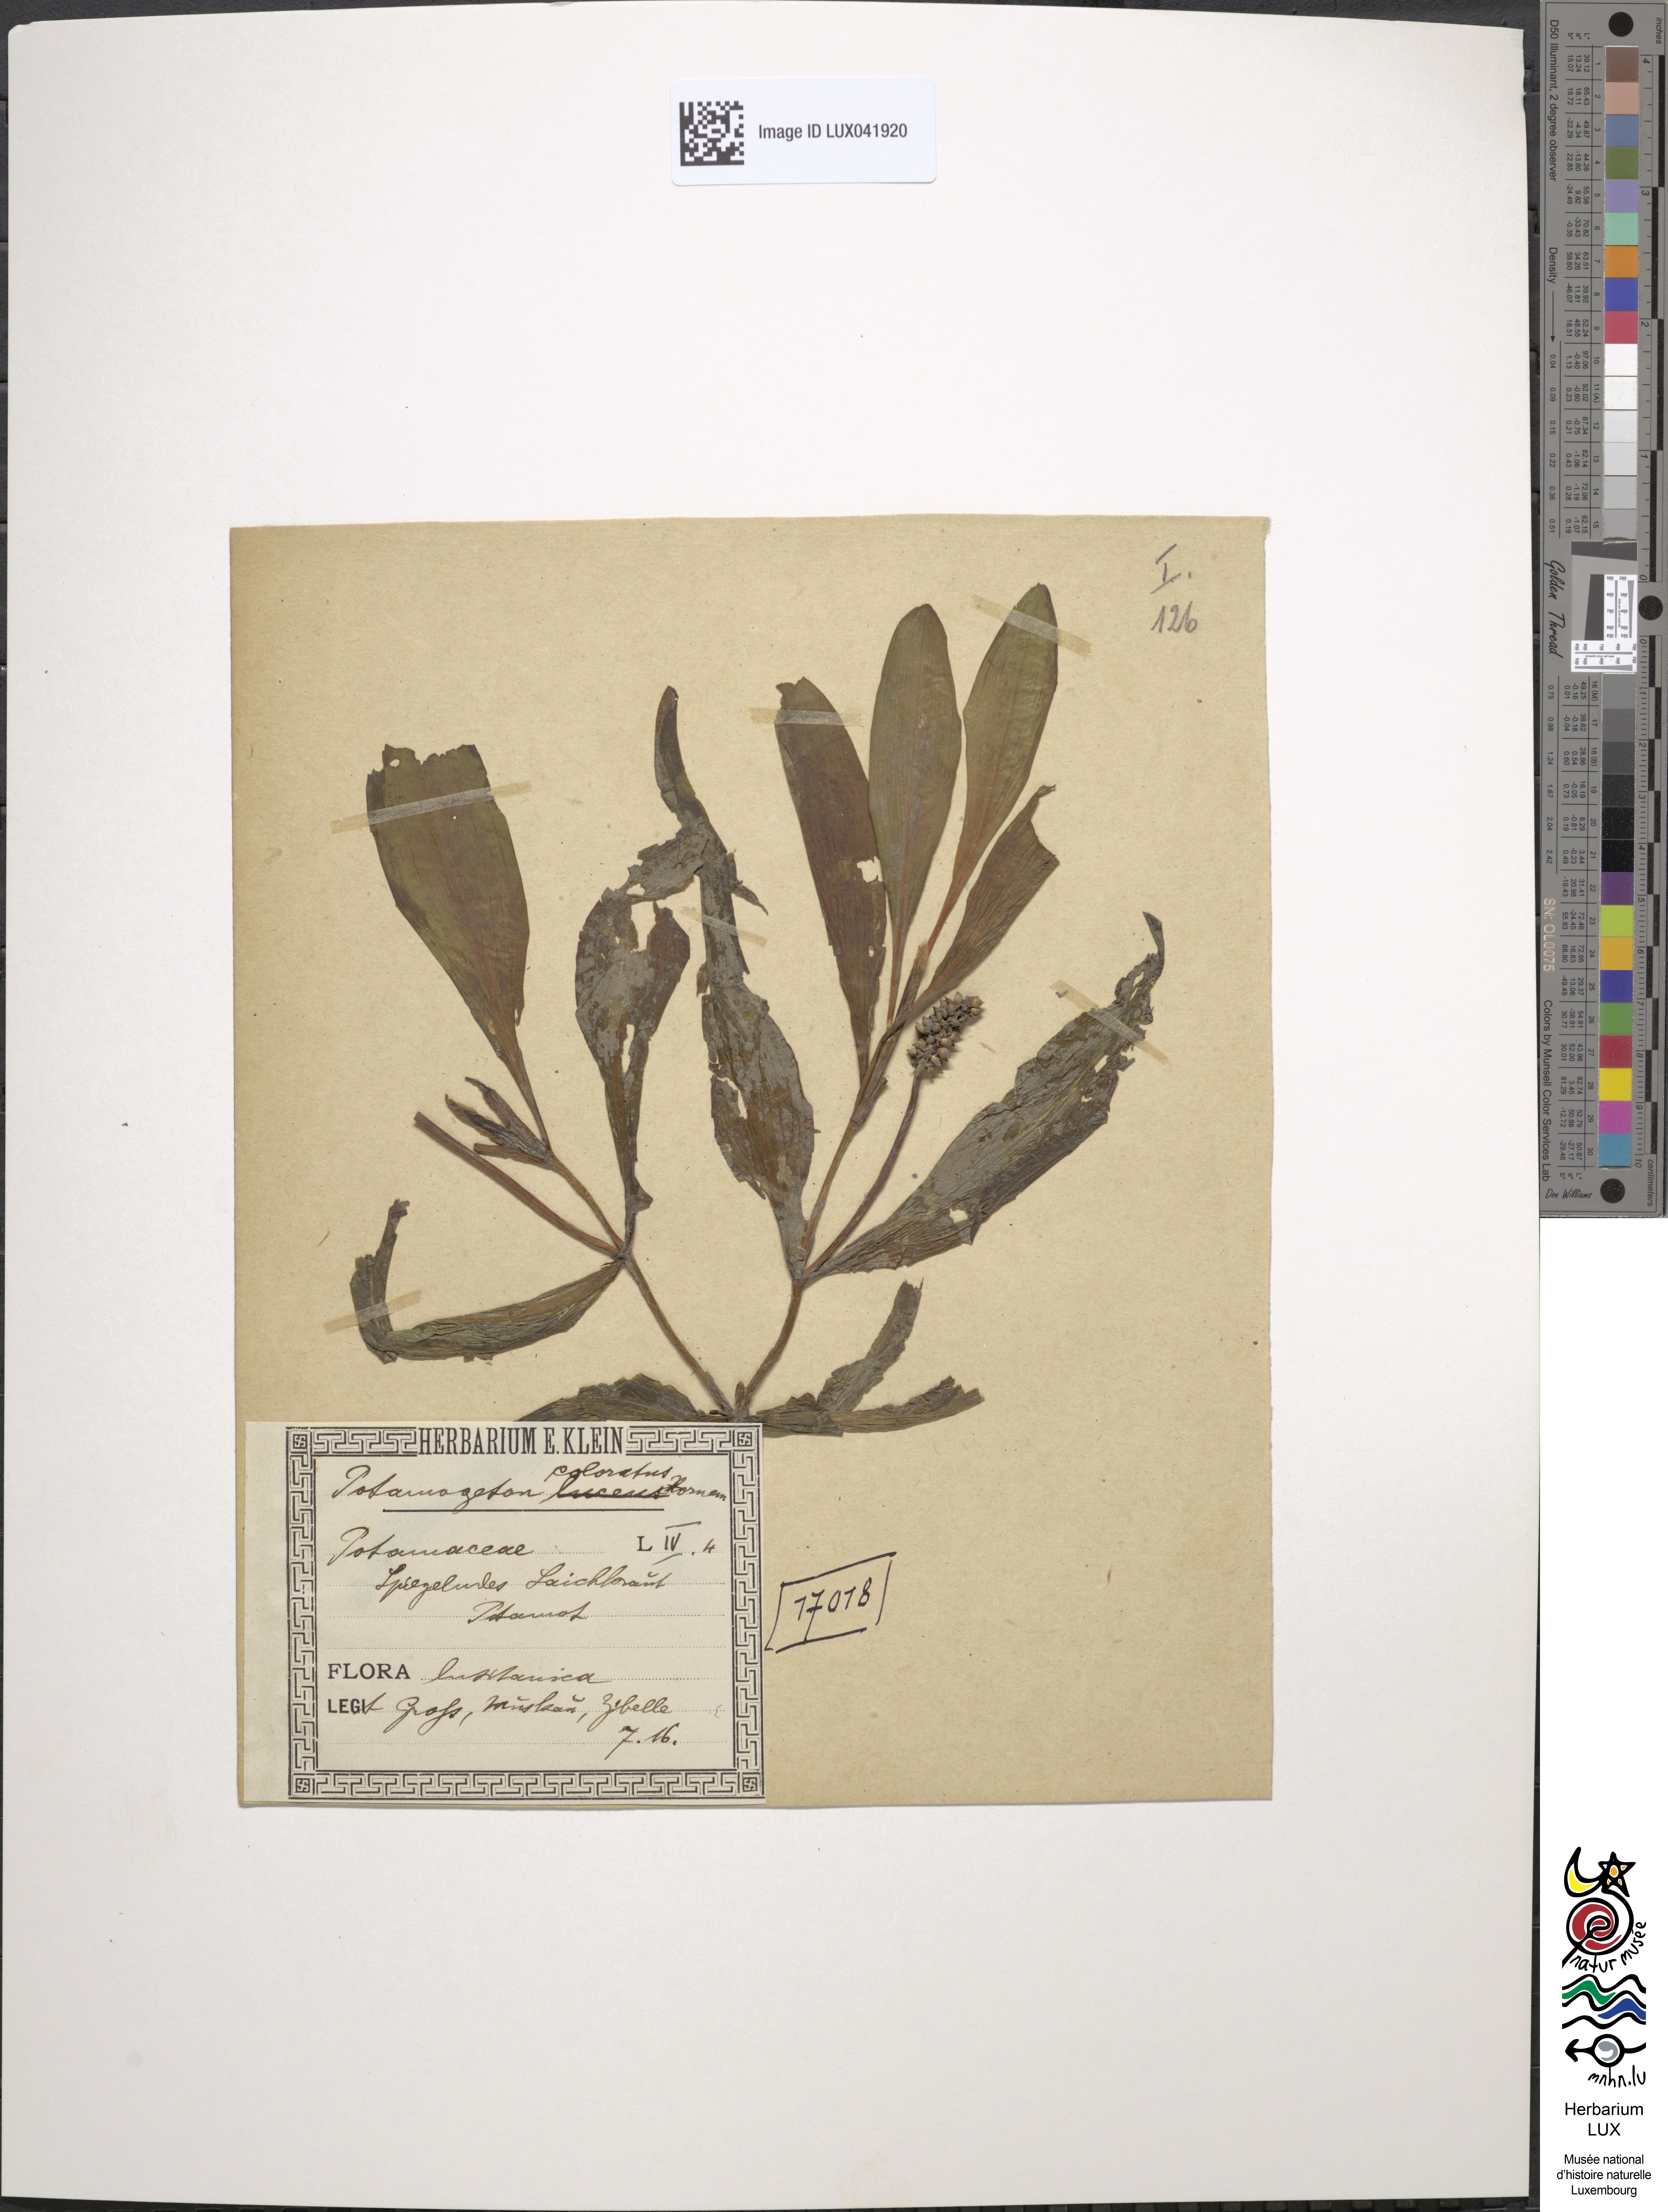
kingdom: Plantae
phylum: Tracheophyta
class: Liliopsida
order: Alismatales
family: Potamogetonaceae
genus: Potamogeton
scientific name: Potamogeton coloratus
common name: Fen pondweed
